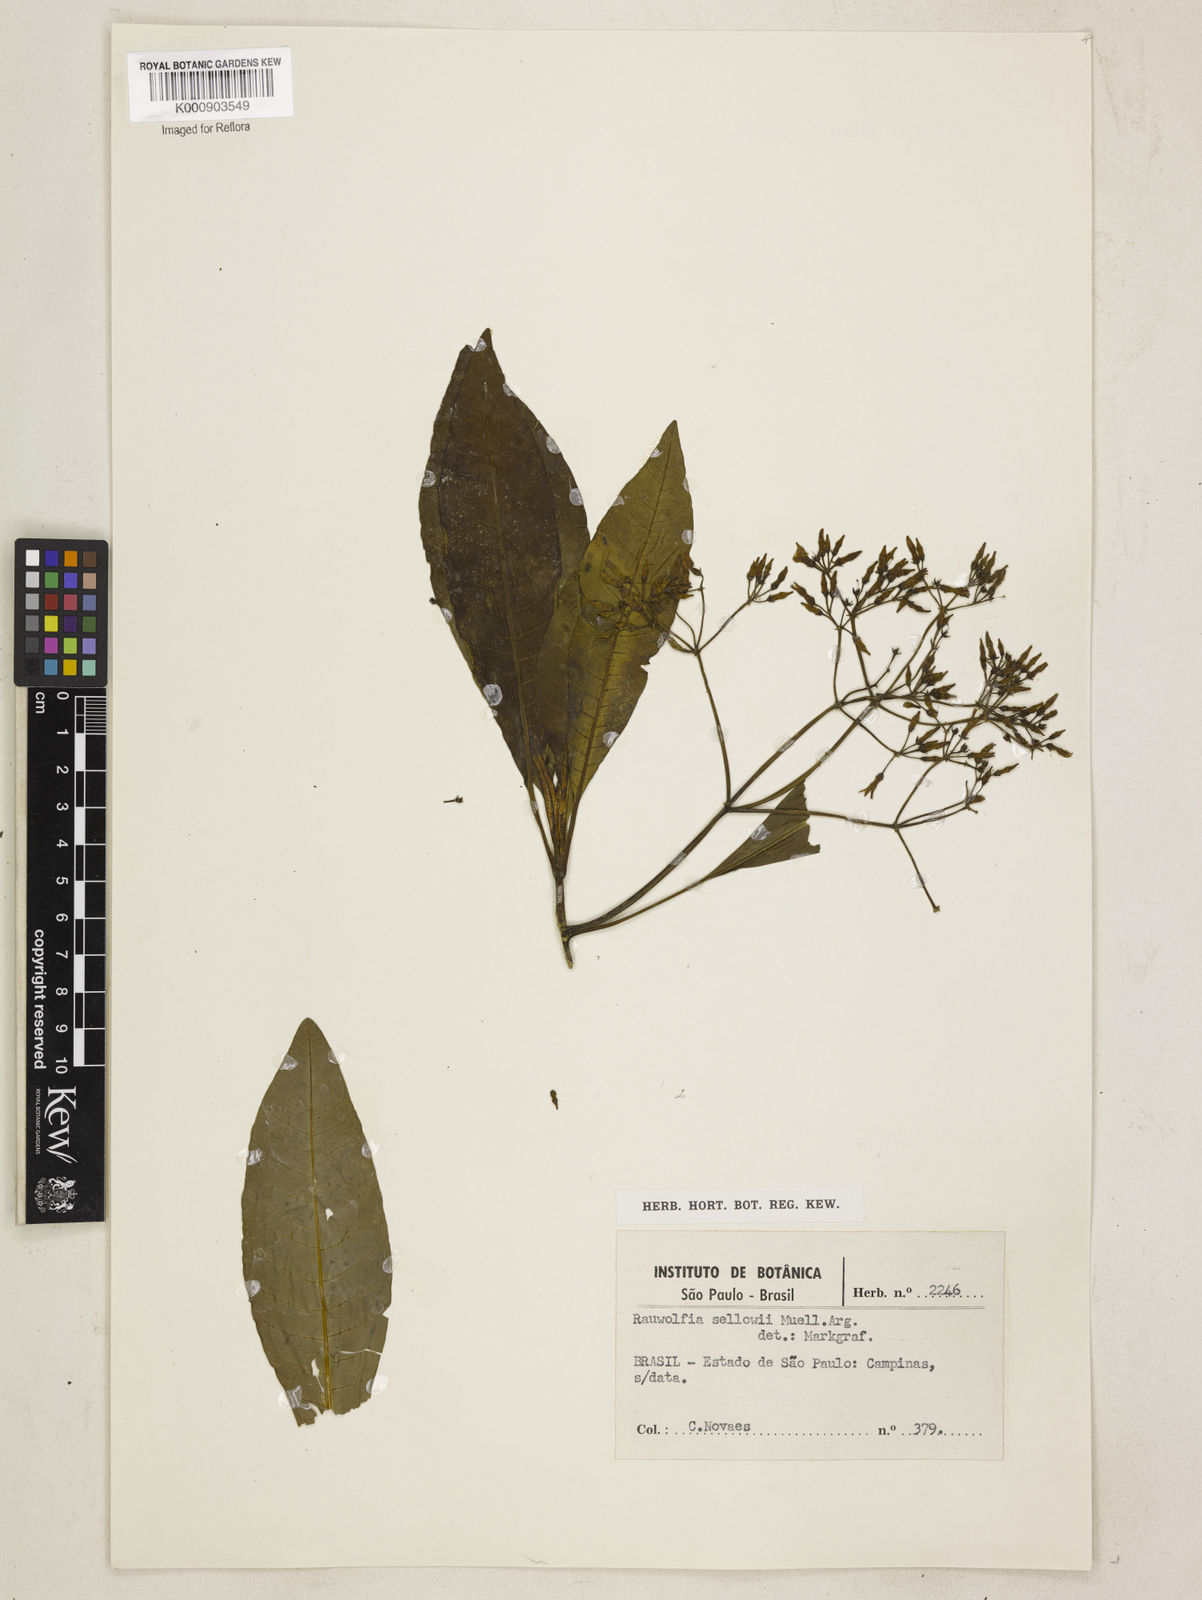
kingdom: Plantae
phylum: Tracheophyta
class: Magnoliopsida
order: Gentianales
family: Apocynaceae
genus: Rauvolfia
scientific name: Rauvolfia
